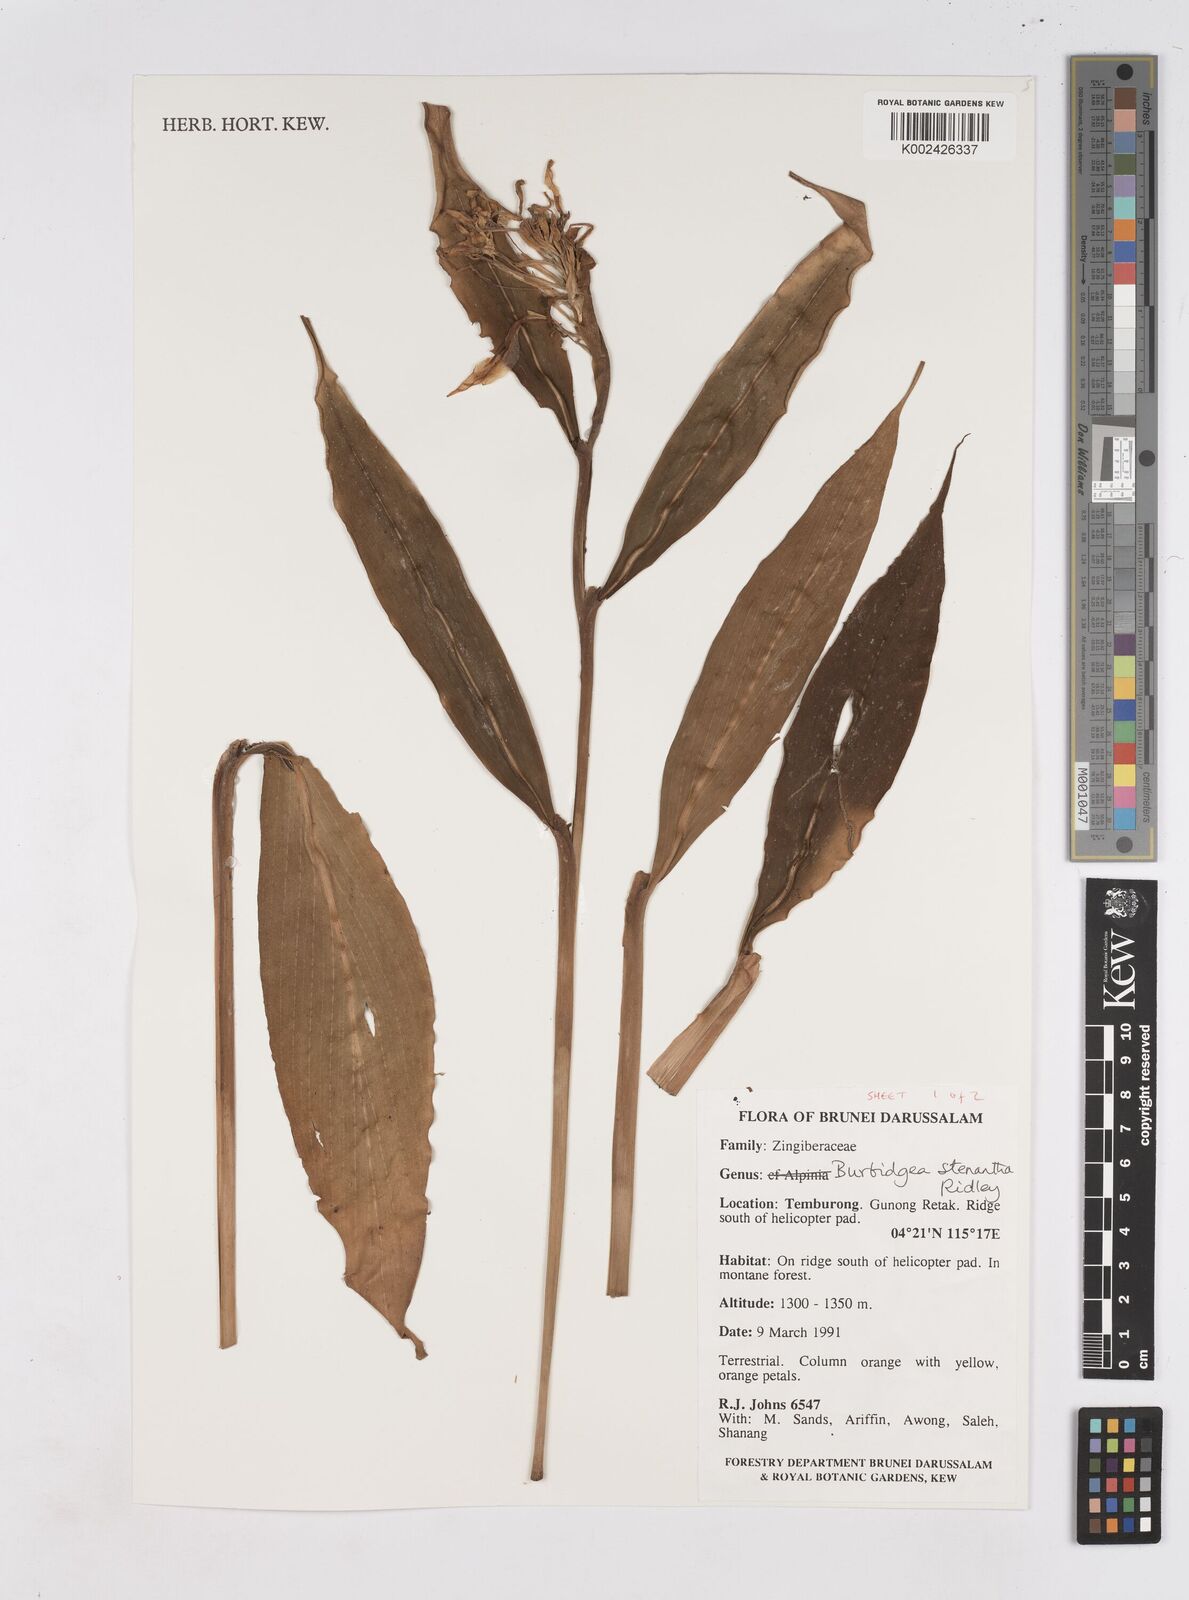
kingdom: Plantae
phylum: Tracheophyta
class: Liliopsida
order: Zingiberales
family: Zingiberaceae
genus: Burbidgea
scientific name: Burbidgea stenantha
